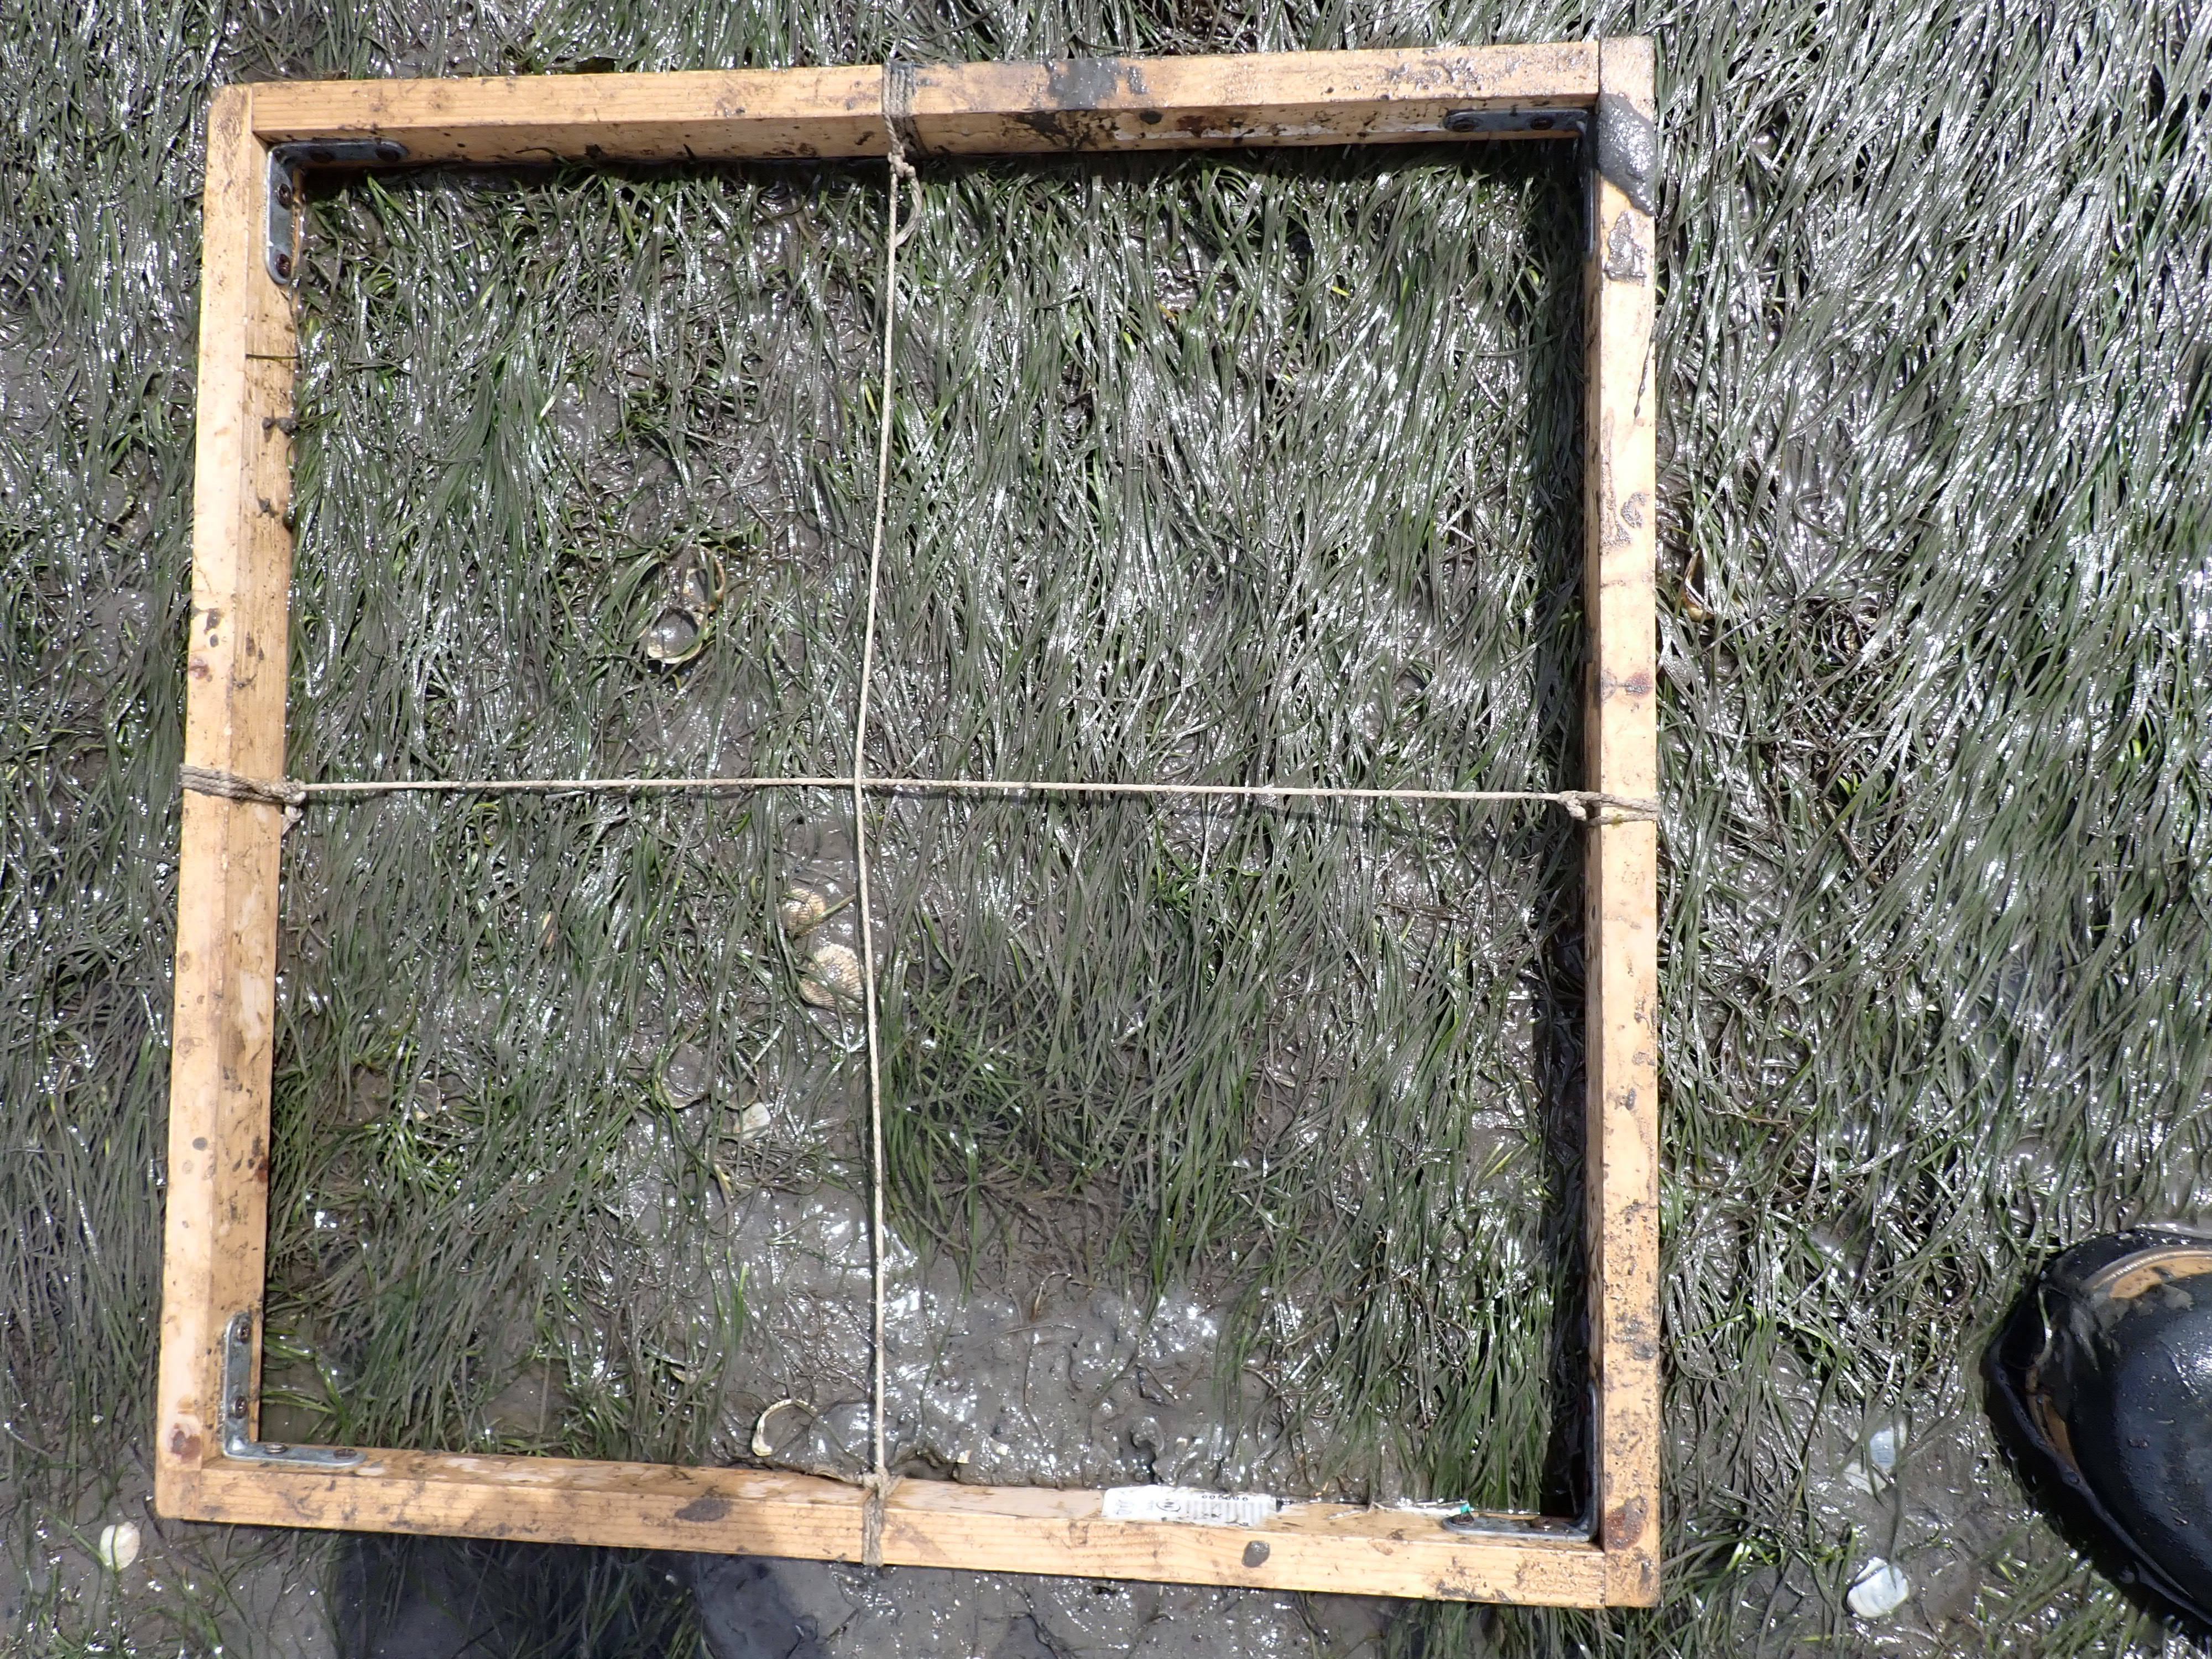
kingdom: Plantae
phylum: Tracheophyta
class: Liliopsida
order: Alismatales
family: Zosteraceae
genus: Zostera
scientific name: Zostera noltii
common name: Dwarf eelgrass
